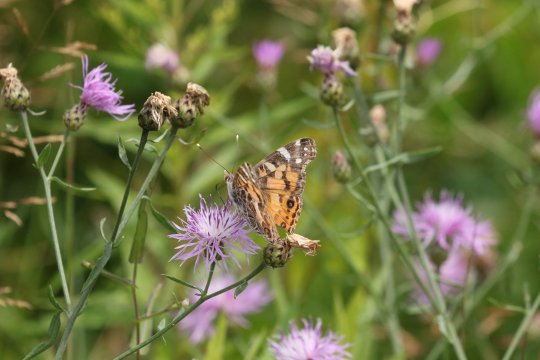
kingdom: Animalia
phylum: Arthropoda
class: Insecta
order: Lepidoptera
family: Nymphalidae
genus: Vanessa
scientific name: Vanessa virginiensis
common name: American Lady
